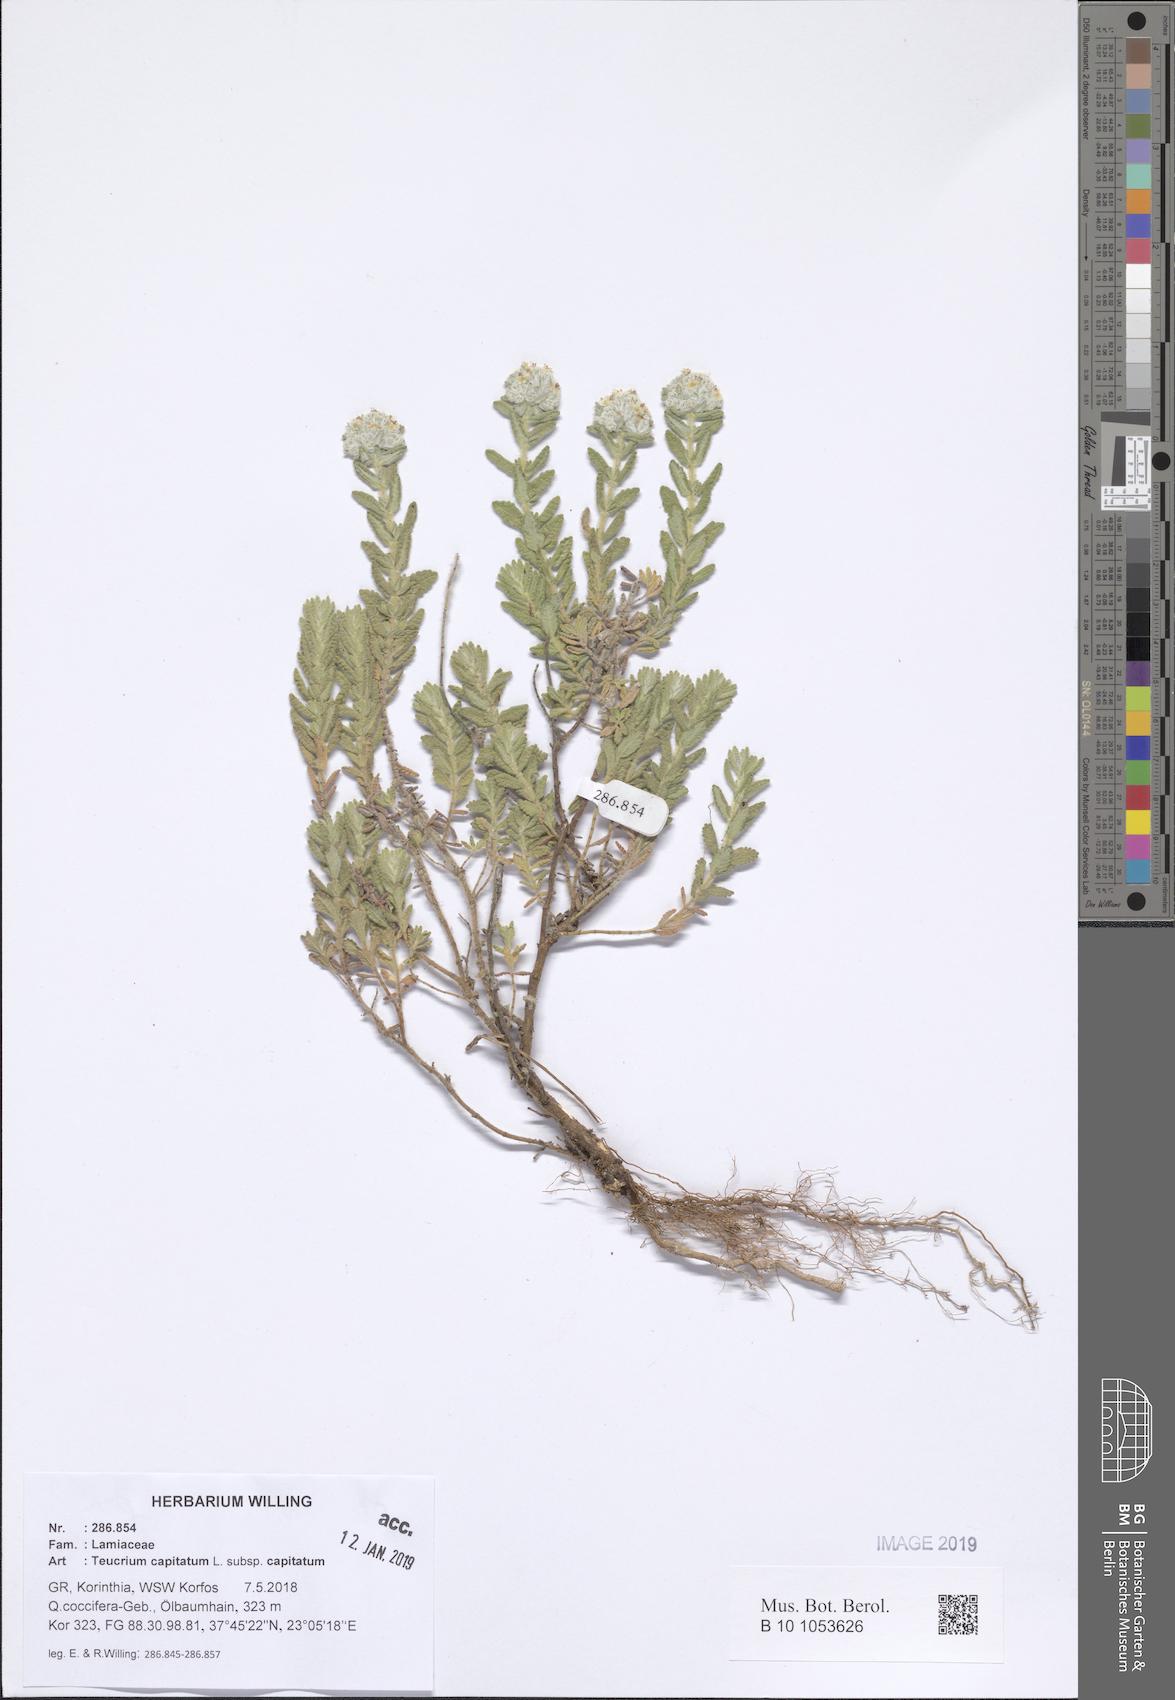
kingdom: Plantae
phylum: Tracheophyta
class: Magnoliopsida
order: Lamiales
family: Lamiaceae
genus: Teucrium
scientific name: Teucrium capitatum
